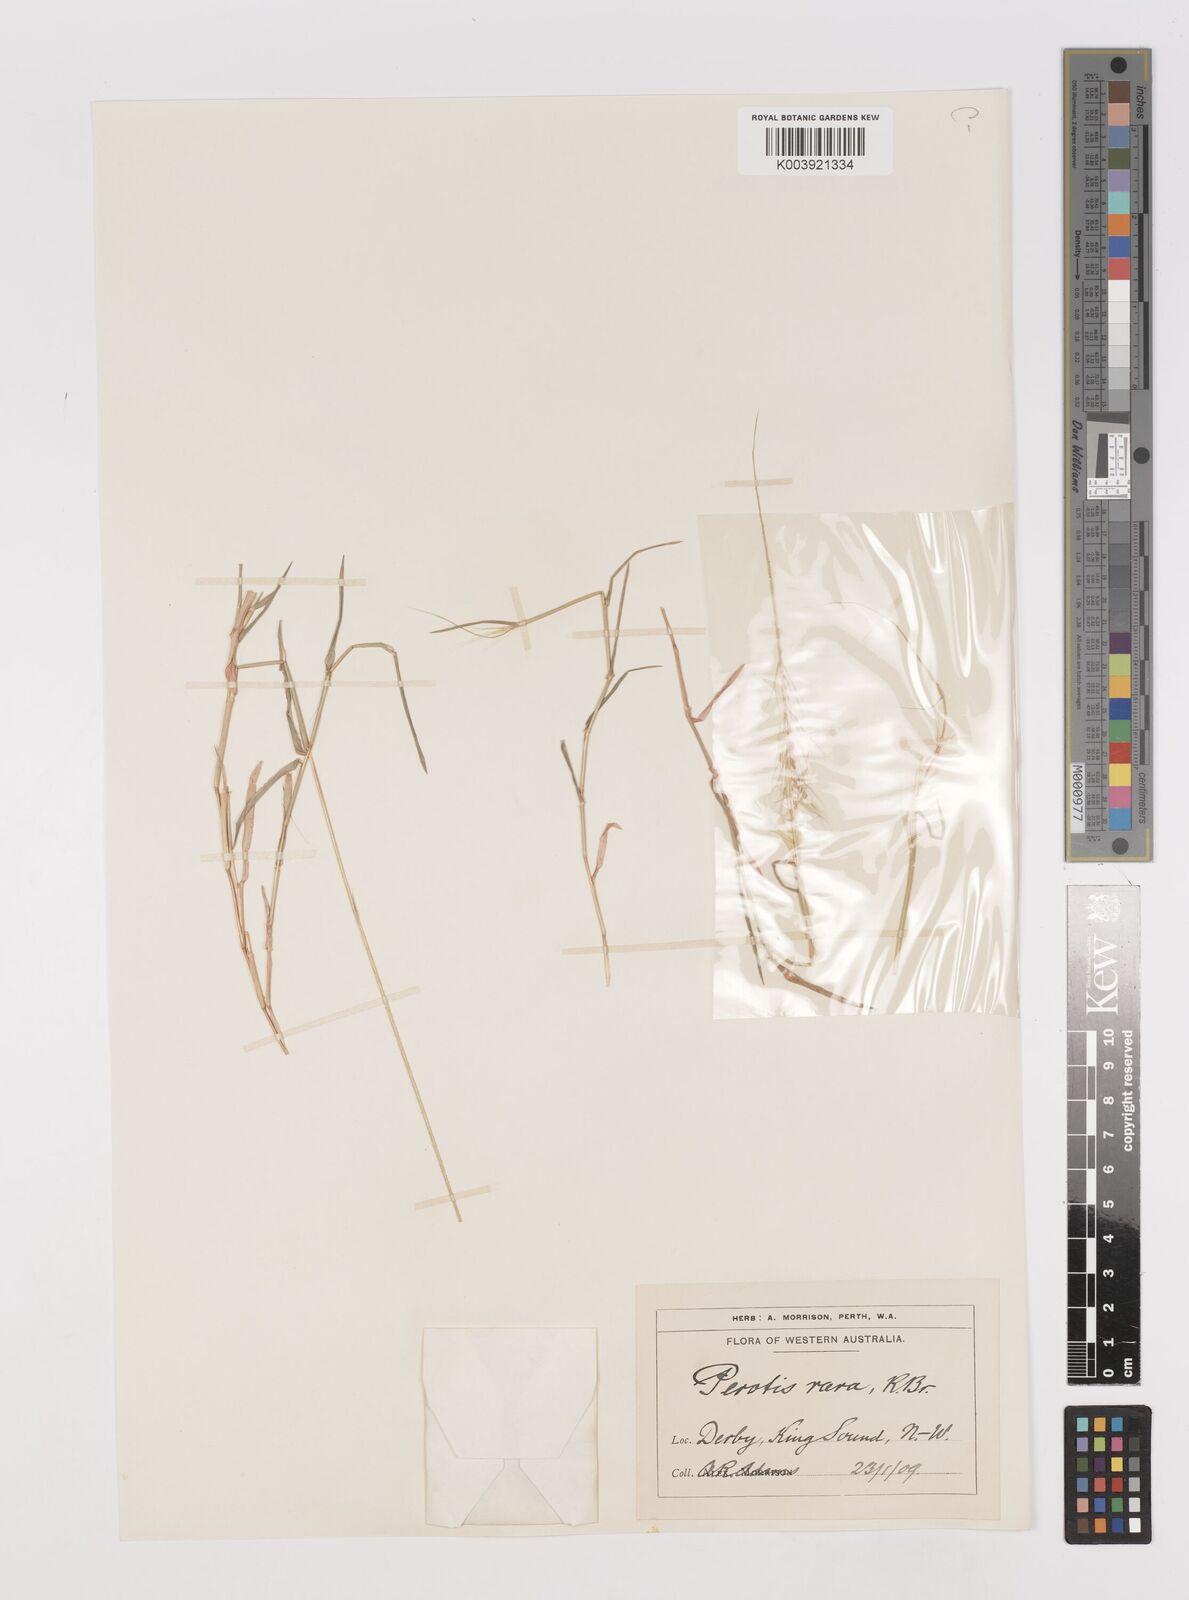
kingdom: Plantae
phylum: Tracheophyta
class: Liliopsida
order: Poales
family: Poaceae
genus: Perotis
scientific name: Perotis rara
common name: Comet grass
